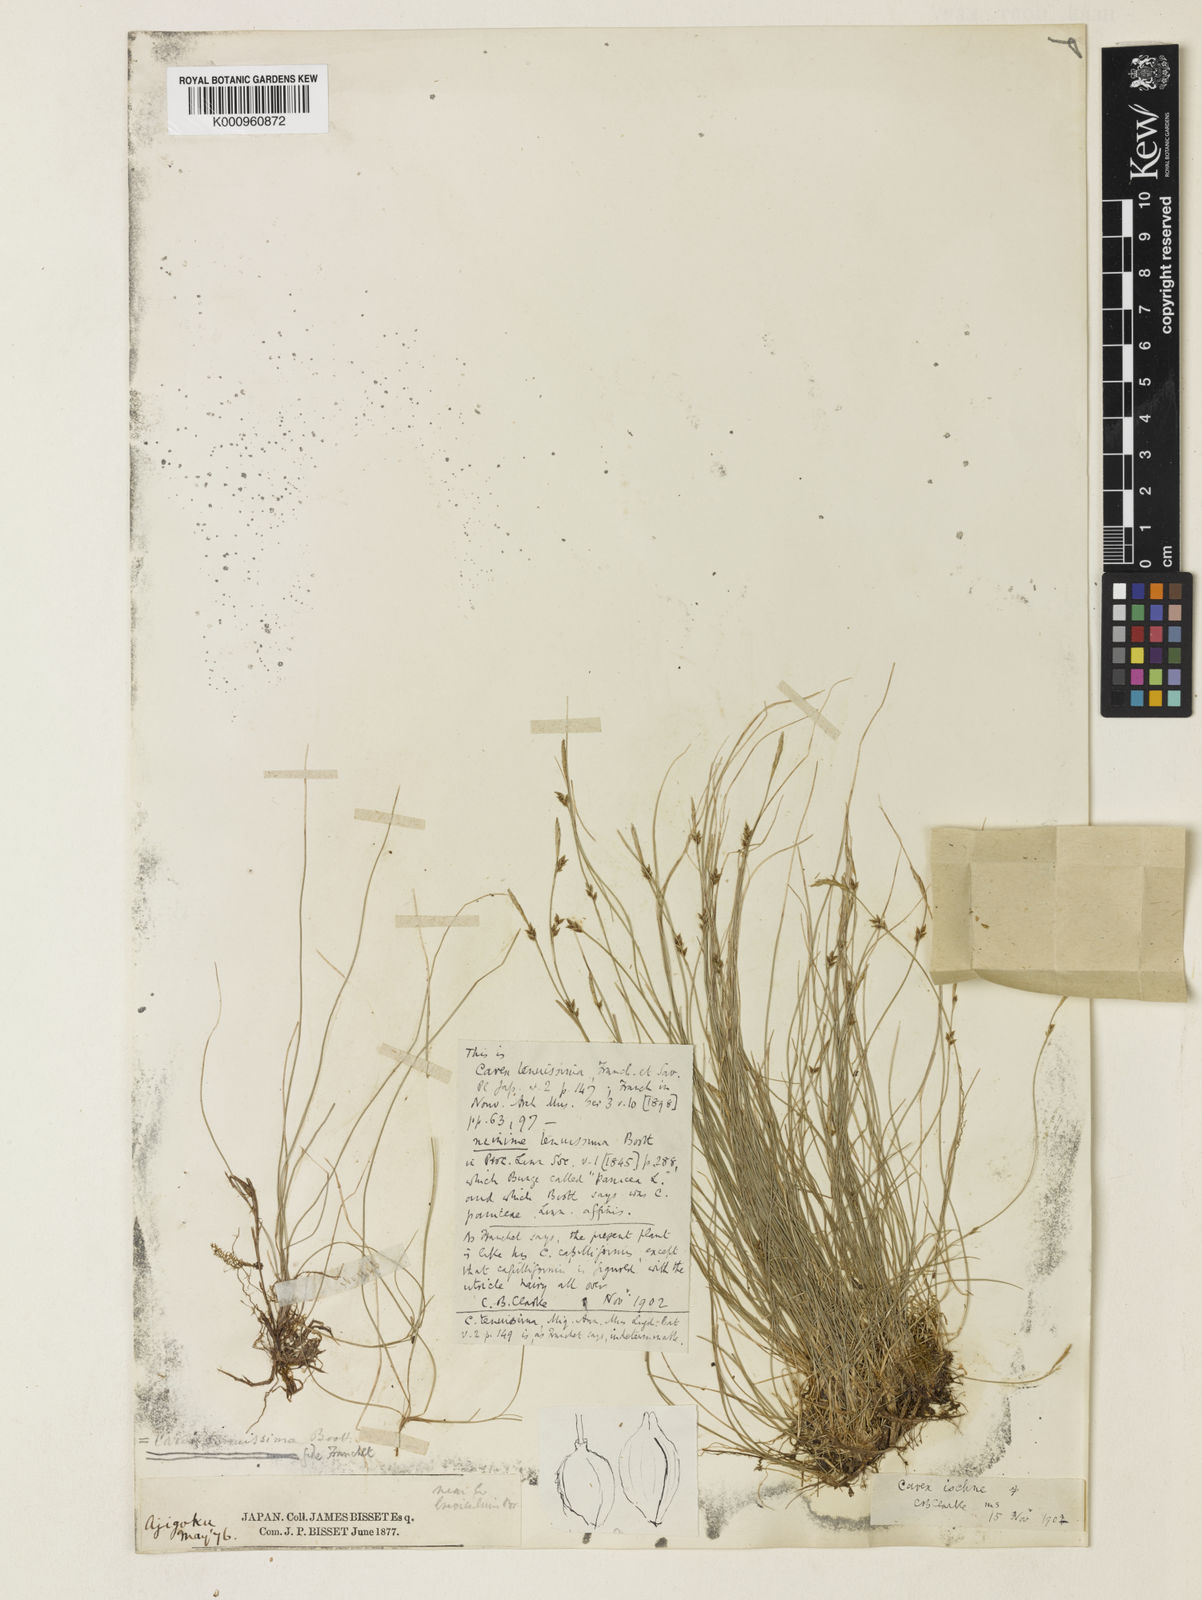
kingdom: Plantae
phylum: Tracheophyta
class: Liliopsida
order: Poales
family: Cyperaceae
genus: Carex
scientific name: Carex pisiformis
